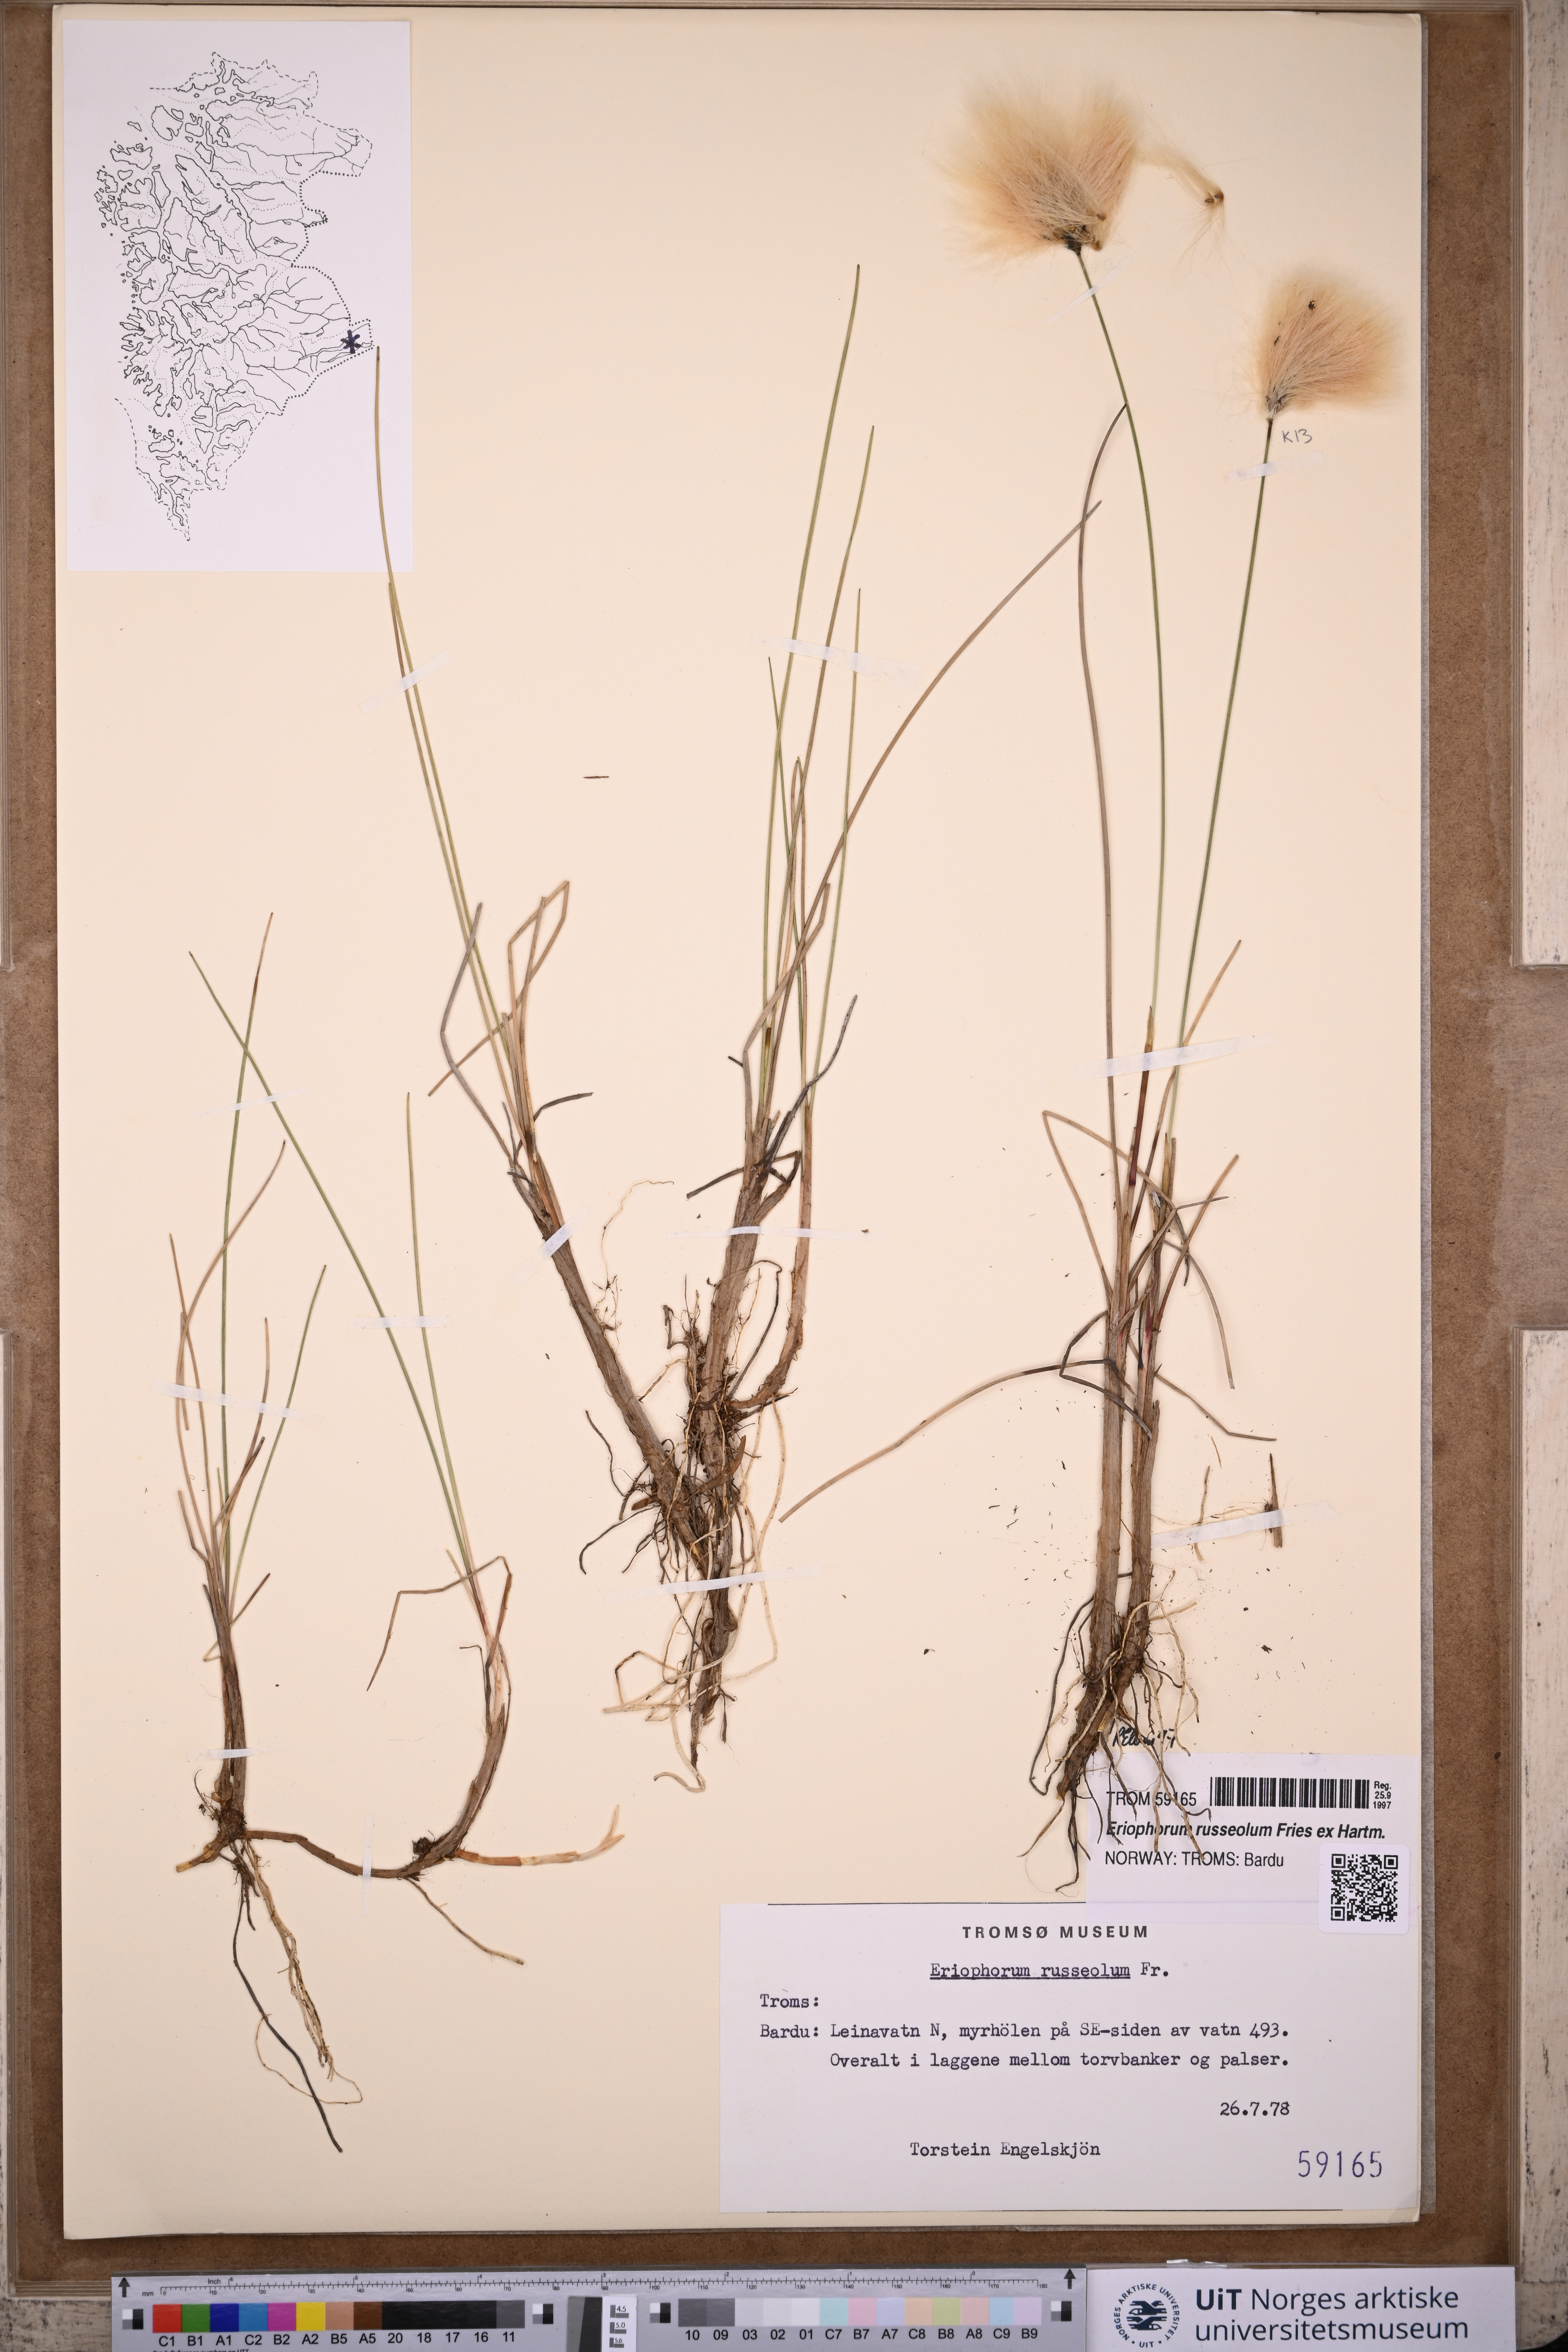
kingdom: Plantae
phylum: Tracheophyta
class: Liliopsida
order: Poales
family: Cyperaceae
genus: Eriophorum
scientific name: Eriophorum russeolum
